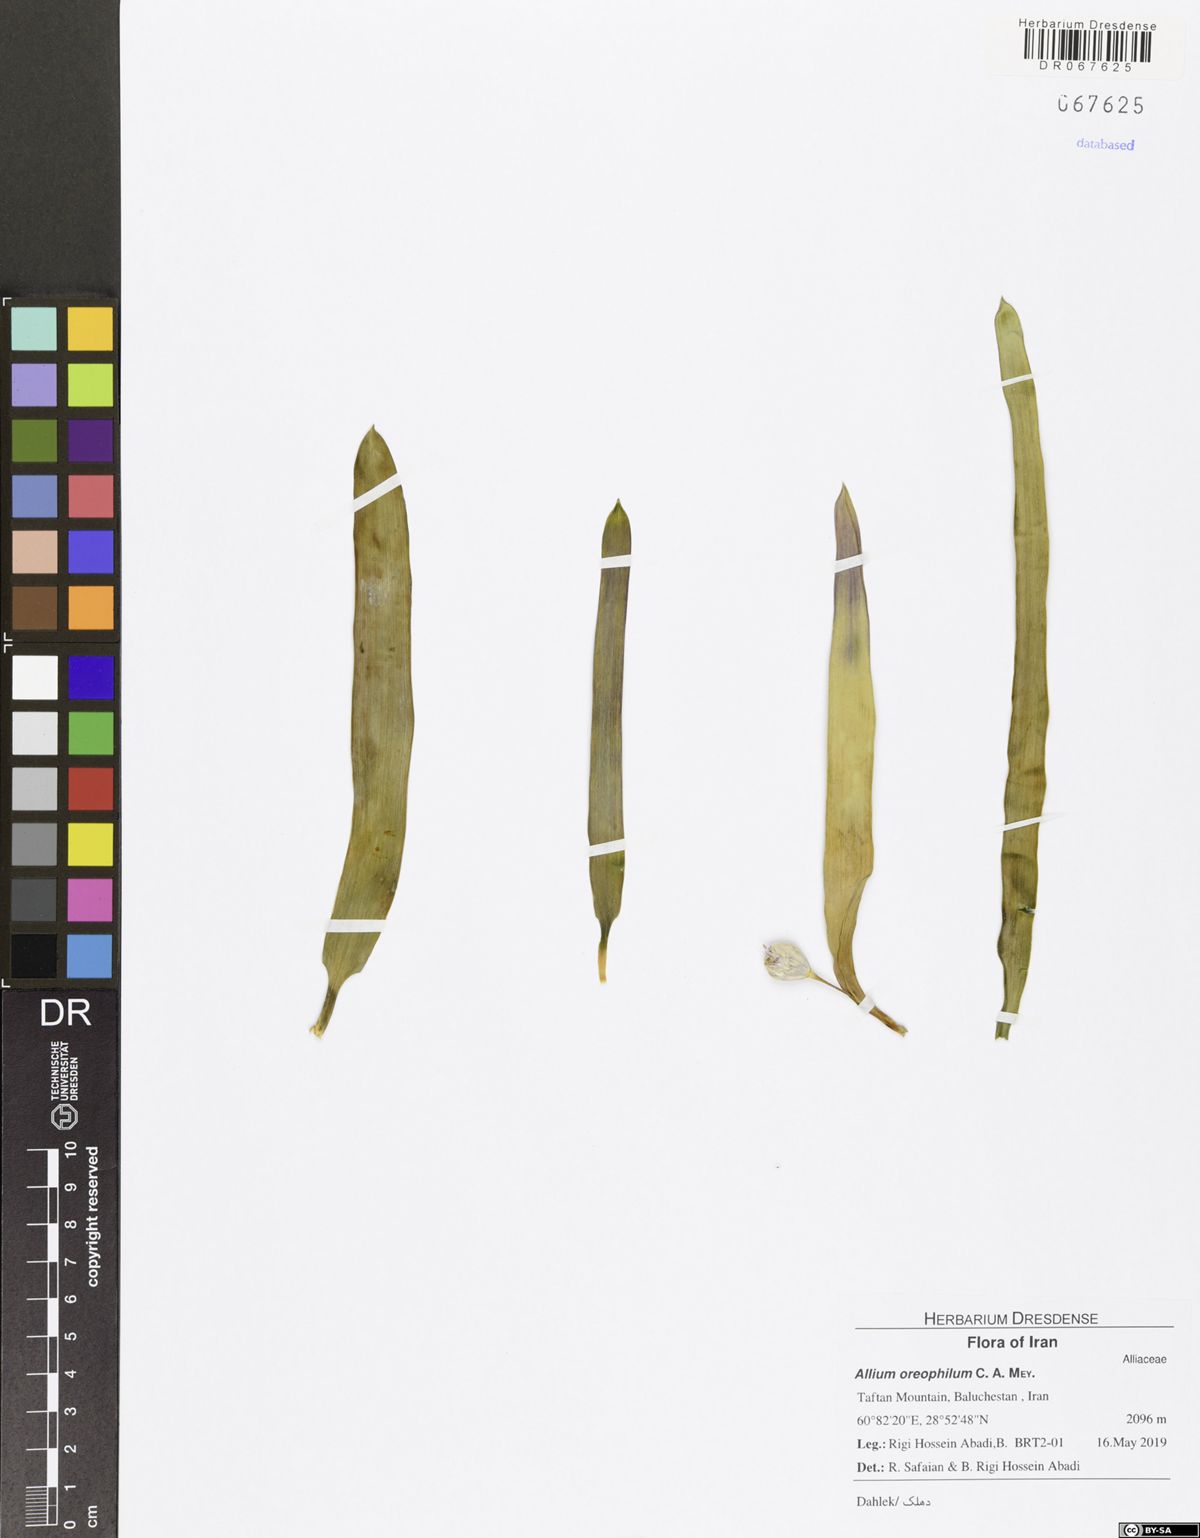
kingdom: Plantae
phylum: Tracheophyta
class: Liliopsida
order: Asparagales
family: Amaryllidaceae
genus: Allium
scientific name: Allium oreophilum
